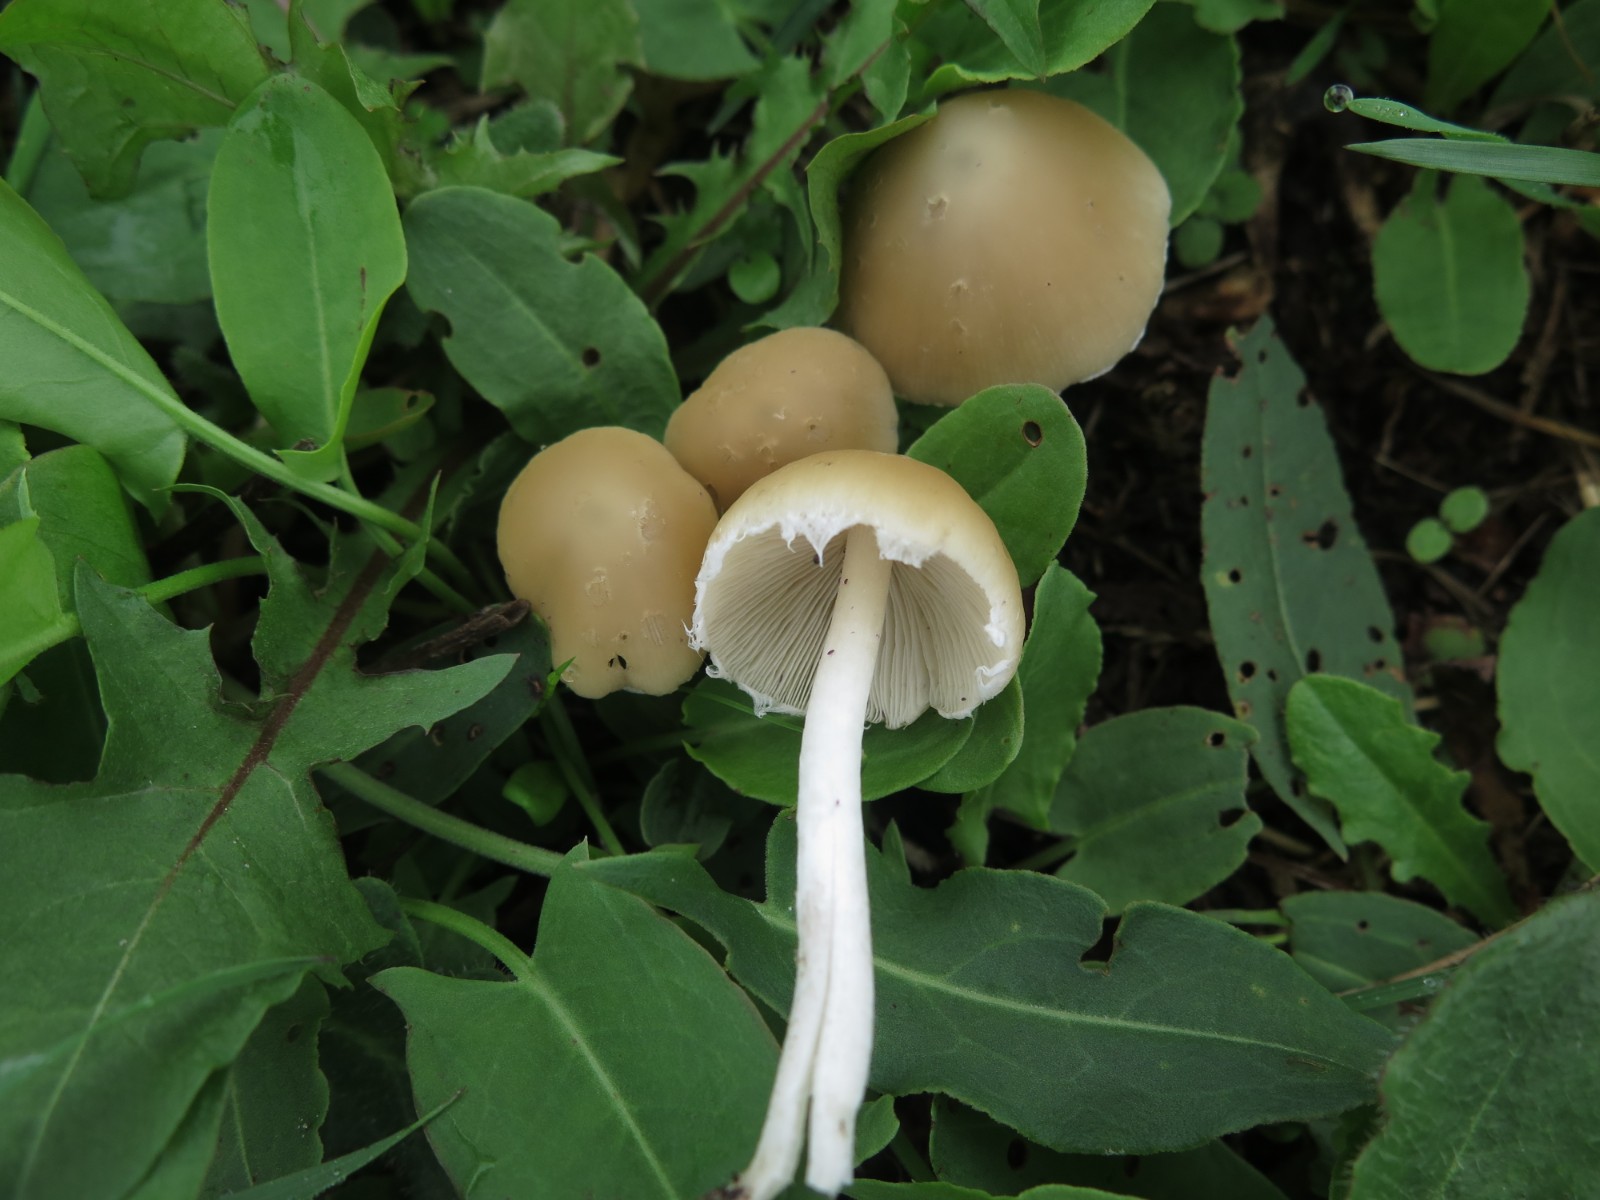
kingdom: Fungi
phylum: Basidiomycota
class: Agaricomycetes
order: Agaricales
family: Psathyrellaceae
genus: Candolleomyces
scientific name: Candolleomyces candolleanus
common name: Candolles mørkhat
